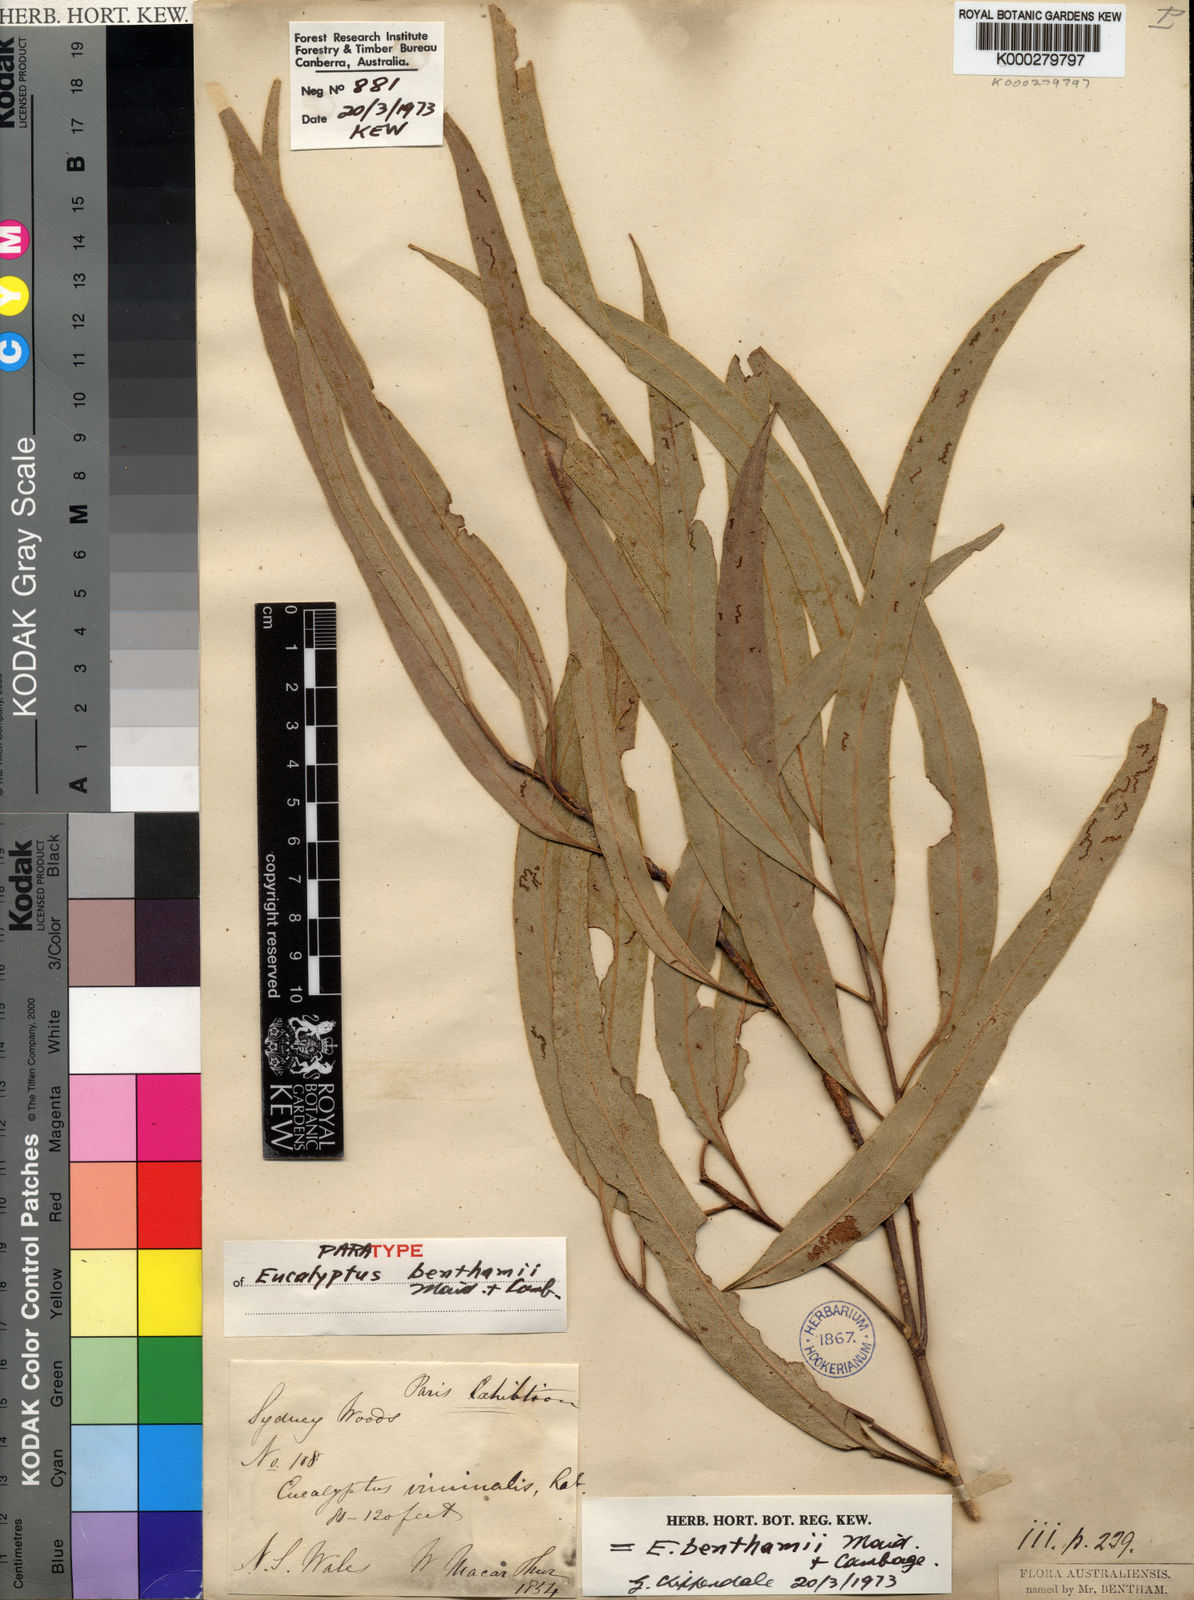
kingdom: Plantae
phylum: Tracheophyta
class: Magnoliopsida
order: Myrtales
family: Myrtaceae
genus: Eucalyptus
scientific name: Eucalyptus viminalis
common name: Manna gum
